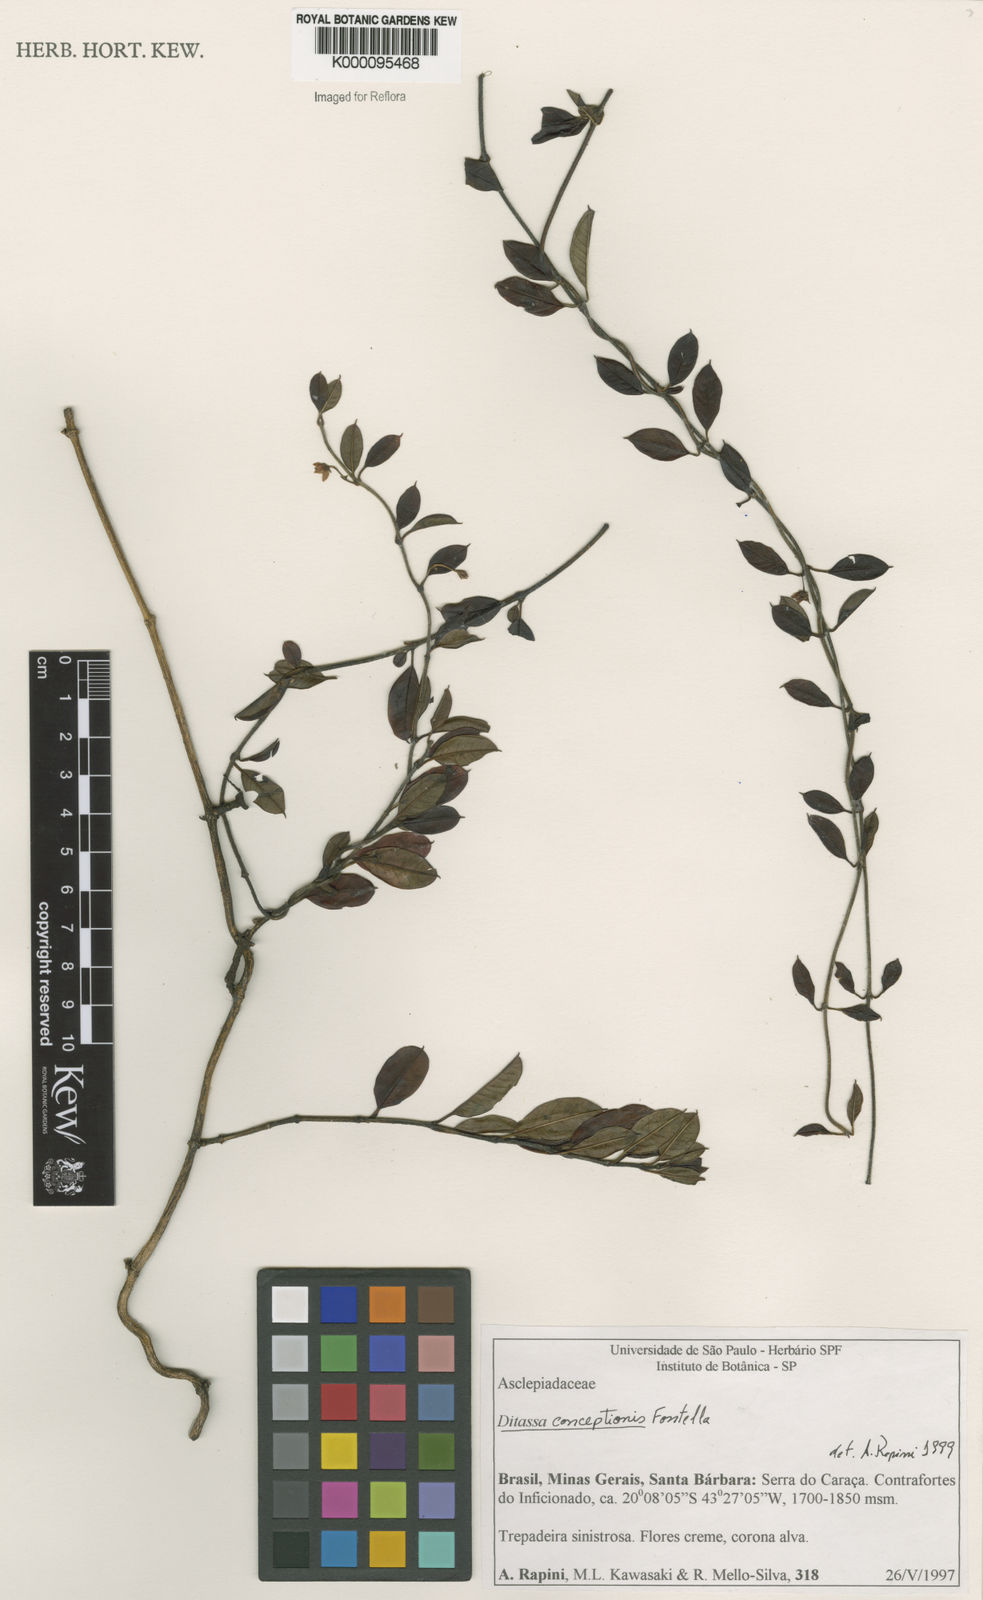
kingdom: Plantae
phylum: Tracheophyta
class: Magnoliopsida
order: Gentianales
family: Apocynaceae
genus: Ditassa
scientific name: Ditassa conceptionis
